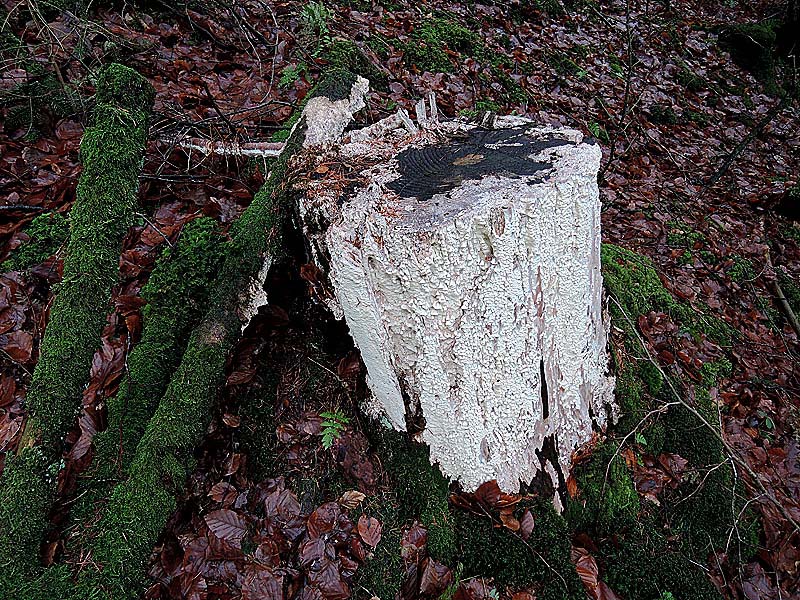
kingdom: Fungi
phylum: Basidiomycota
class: Agaricomycetes
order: Polyporales
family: Fomitopsidaceae
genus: Daedalea
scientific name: Daedalea xantha
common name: gul sejporesvamp
